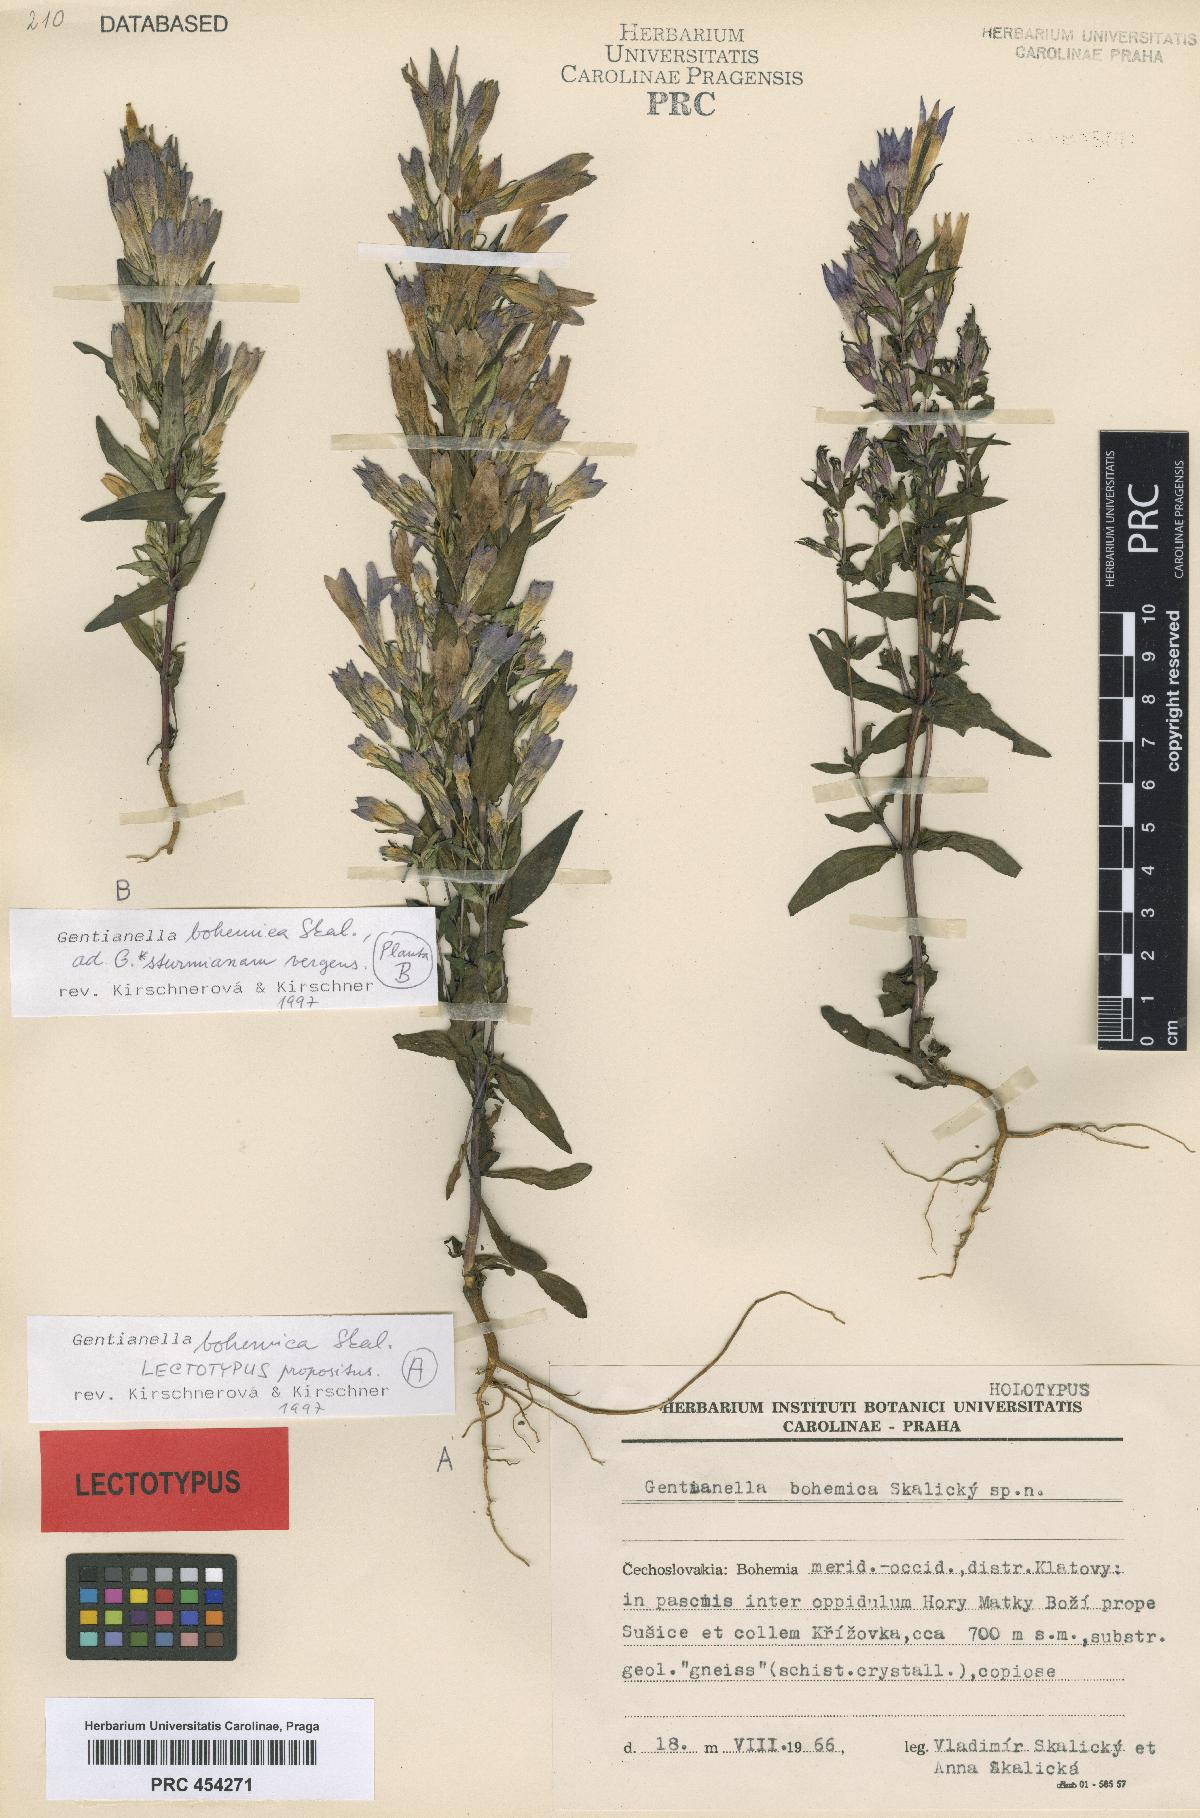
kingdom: Plantae
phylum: Tracheophyta
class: Magnoliopsida
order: Gentianales
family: Gentianaceae
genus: Gentianella
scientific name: Gentianella praecox
